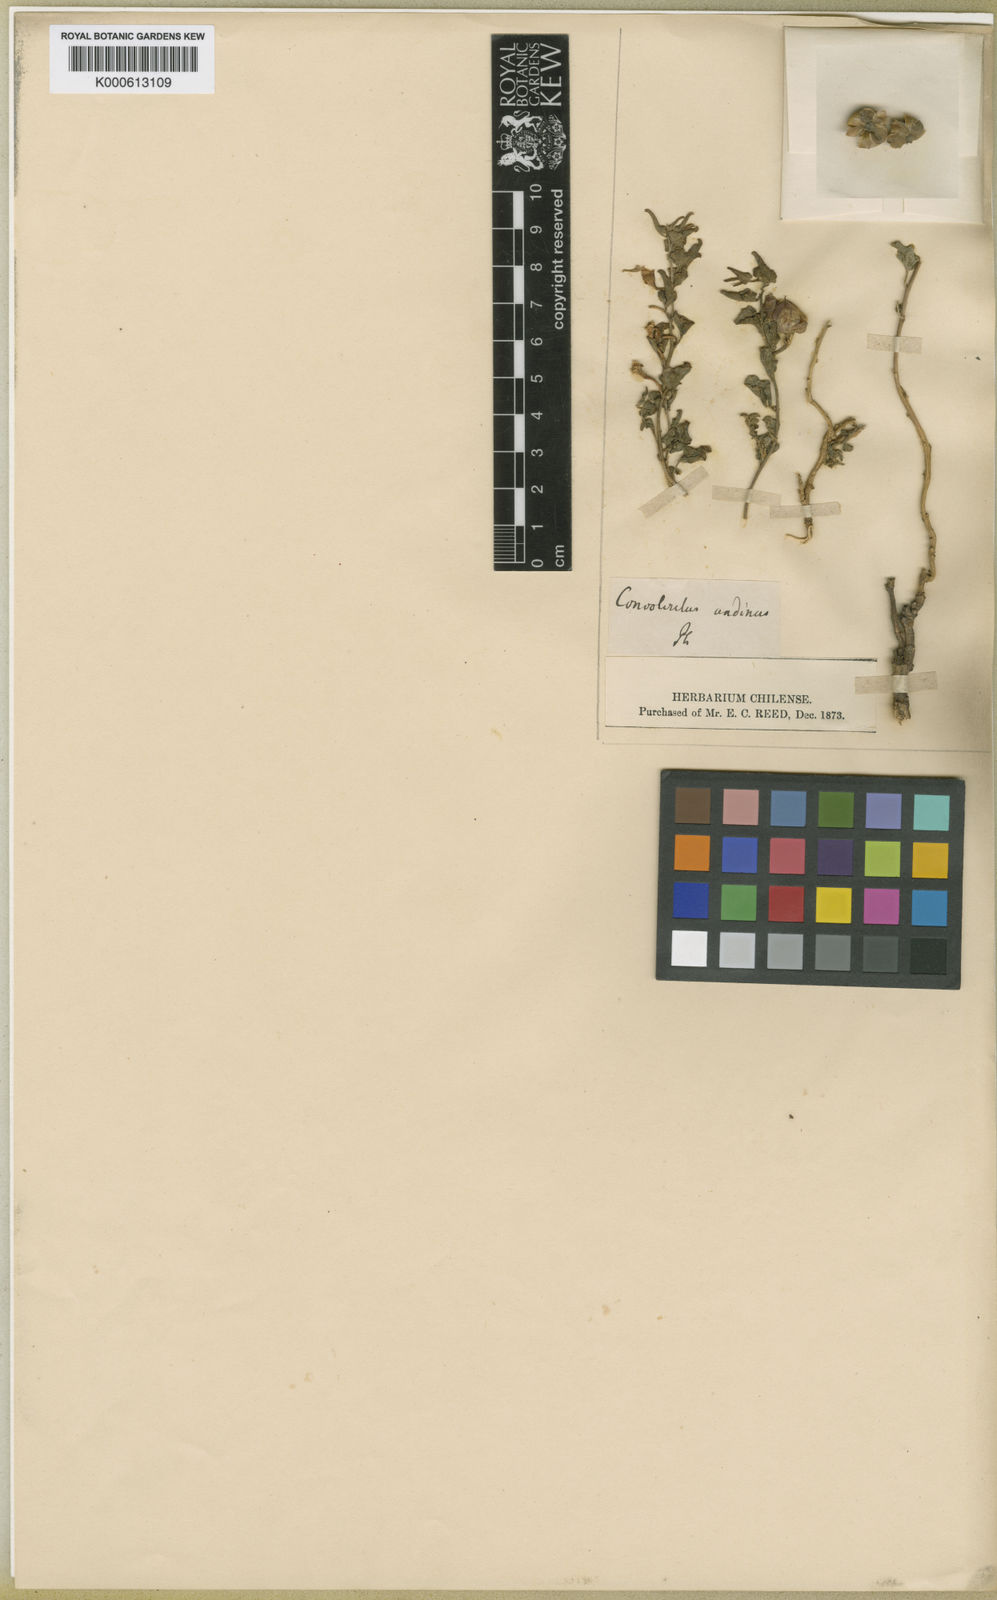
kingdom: Plantae
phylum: Tracheophyta
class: Magnoliopsida
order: Solanales
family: Convolvulaceae
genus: Convolvulus
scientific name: Convolvulus demissus
